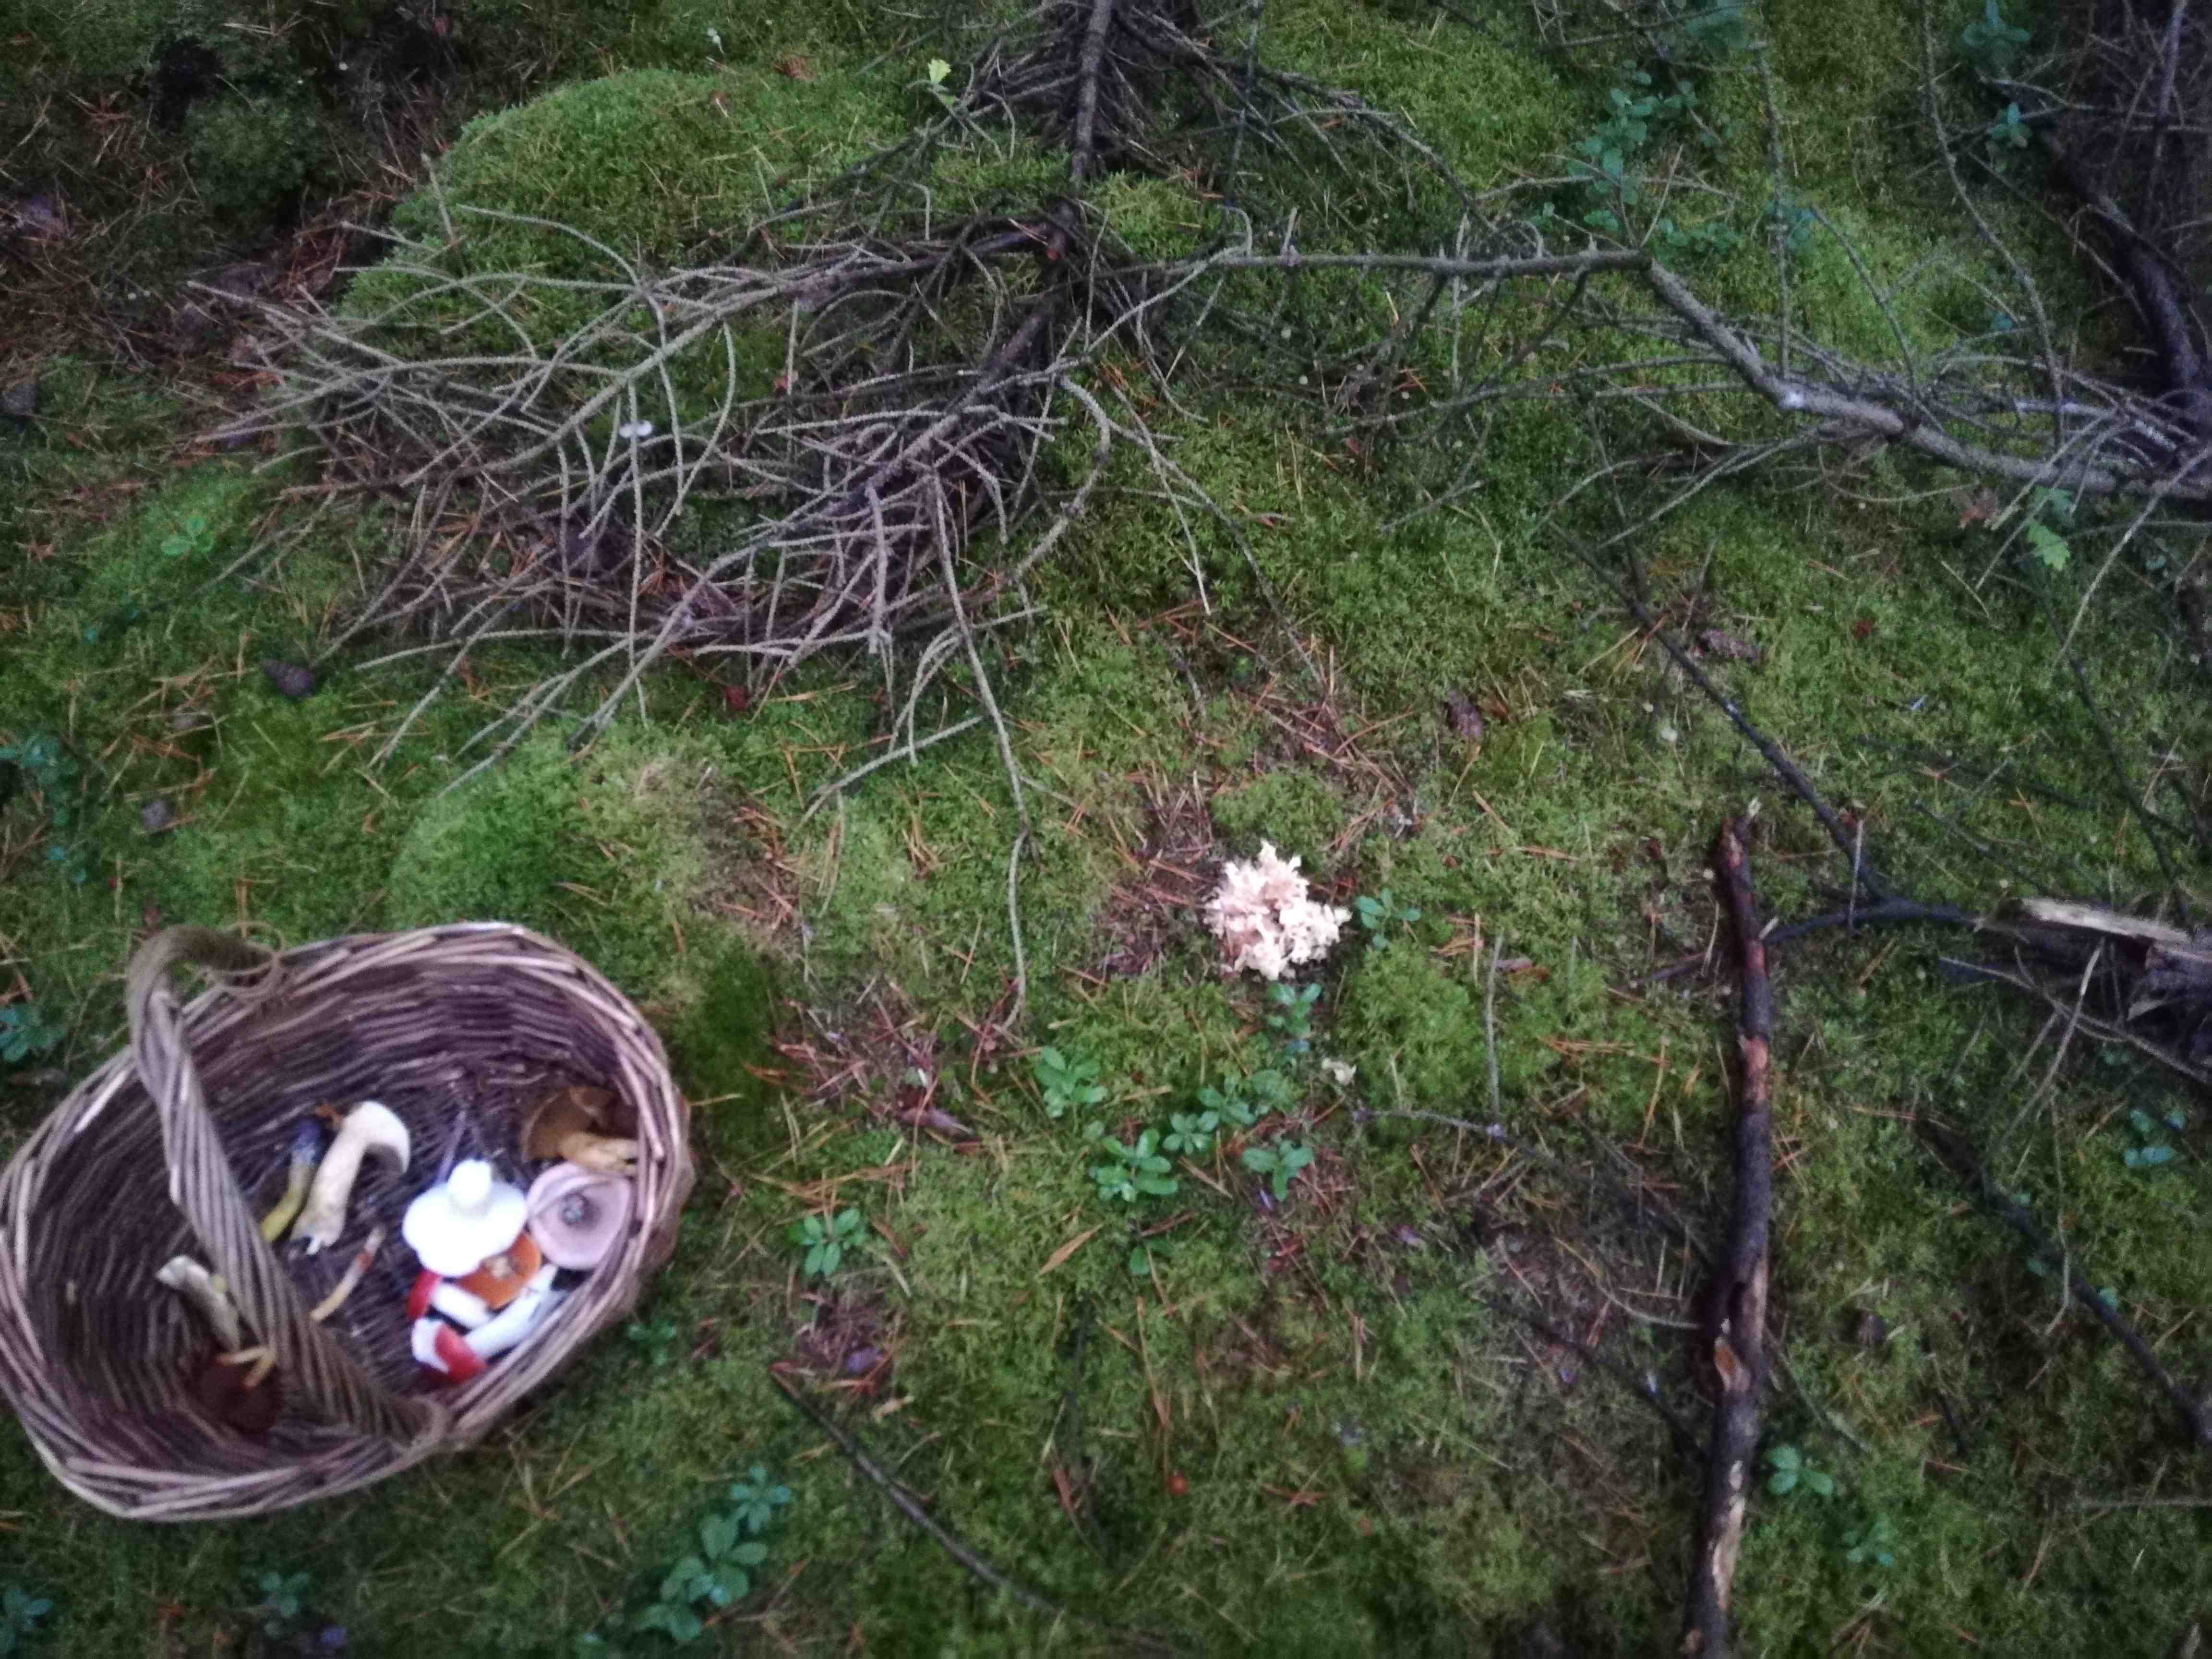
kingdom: Fungi
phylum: Basidiomycota
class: Agaricomycetes
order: Polyporales
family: Sparassidaceae
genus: Sparassis
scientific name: Sparassis crispa
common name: kruset blomkålssvamp
